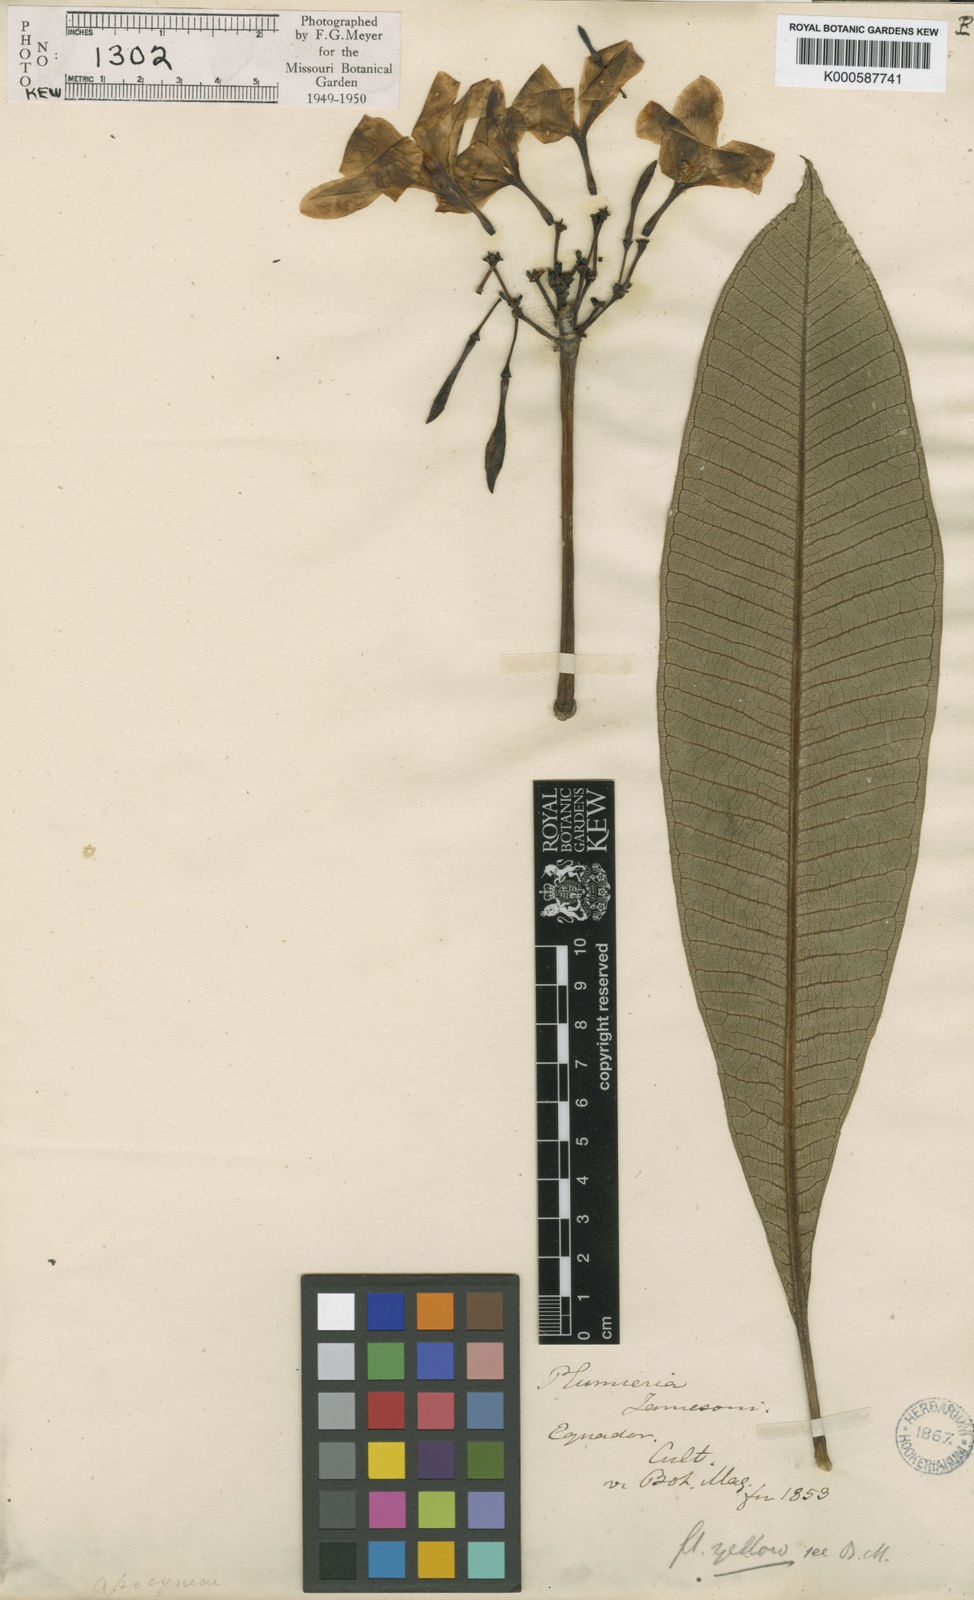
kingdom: Plantae
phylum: Tracheophyta
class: Magnoliopsida
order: Gentianales
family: Apocynaceae
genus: Plumeria
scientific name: Plumeria rubra
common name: Pagoda-tree
